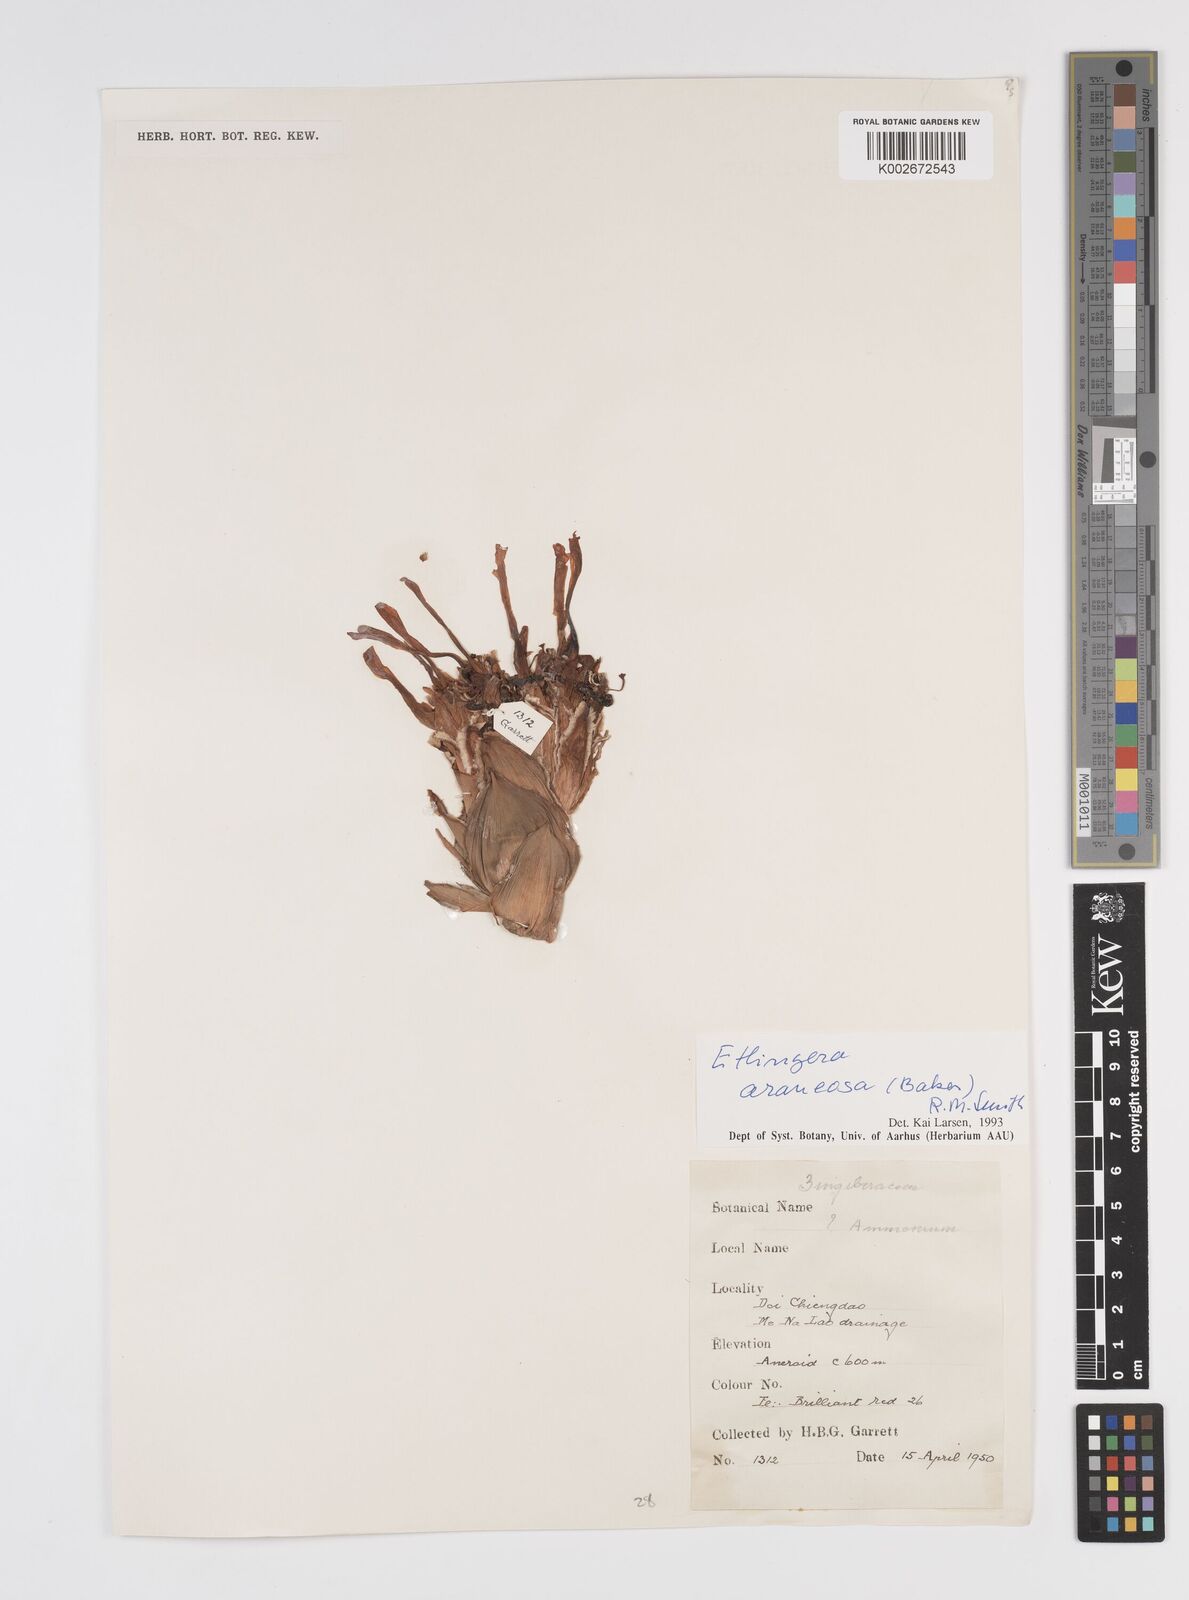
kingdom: Plantae
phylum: Tracheophyta
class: Liliopsida
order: Zingiberales
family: Zingiberaceae
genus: Etlingera
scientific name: Etlingera araneosa
